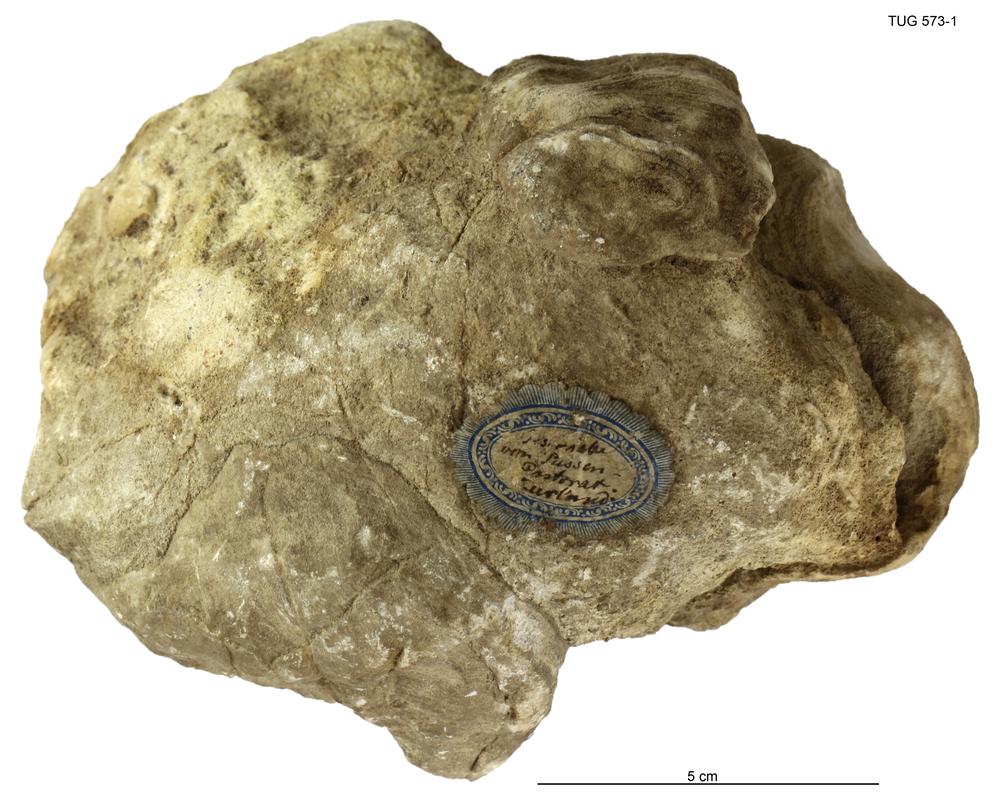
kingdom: Animalia
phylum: Porifera
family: Stromatoporidae
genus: Stromatopora
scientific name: Stromatopora
